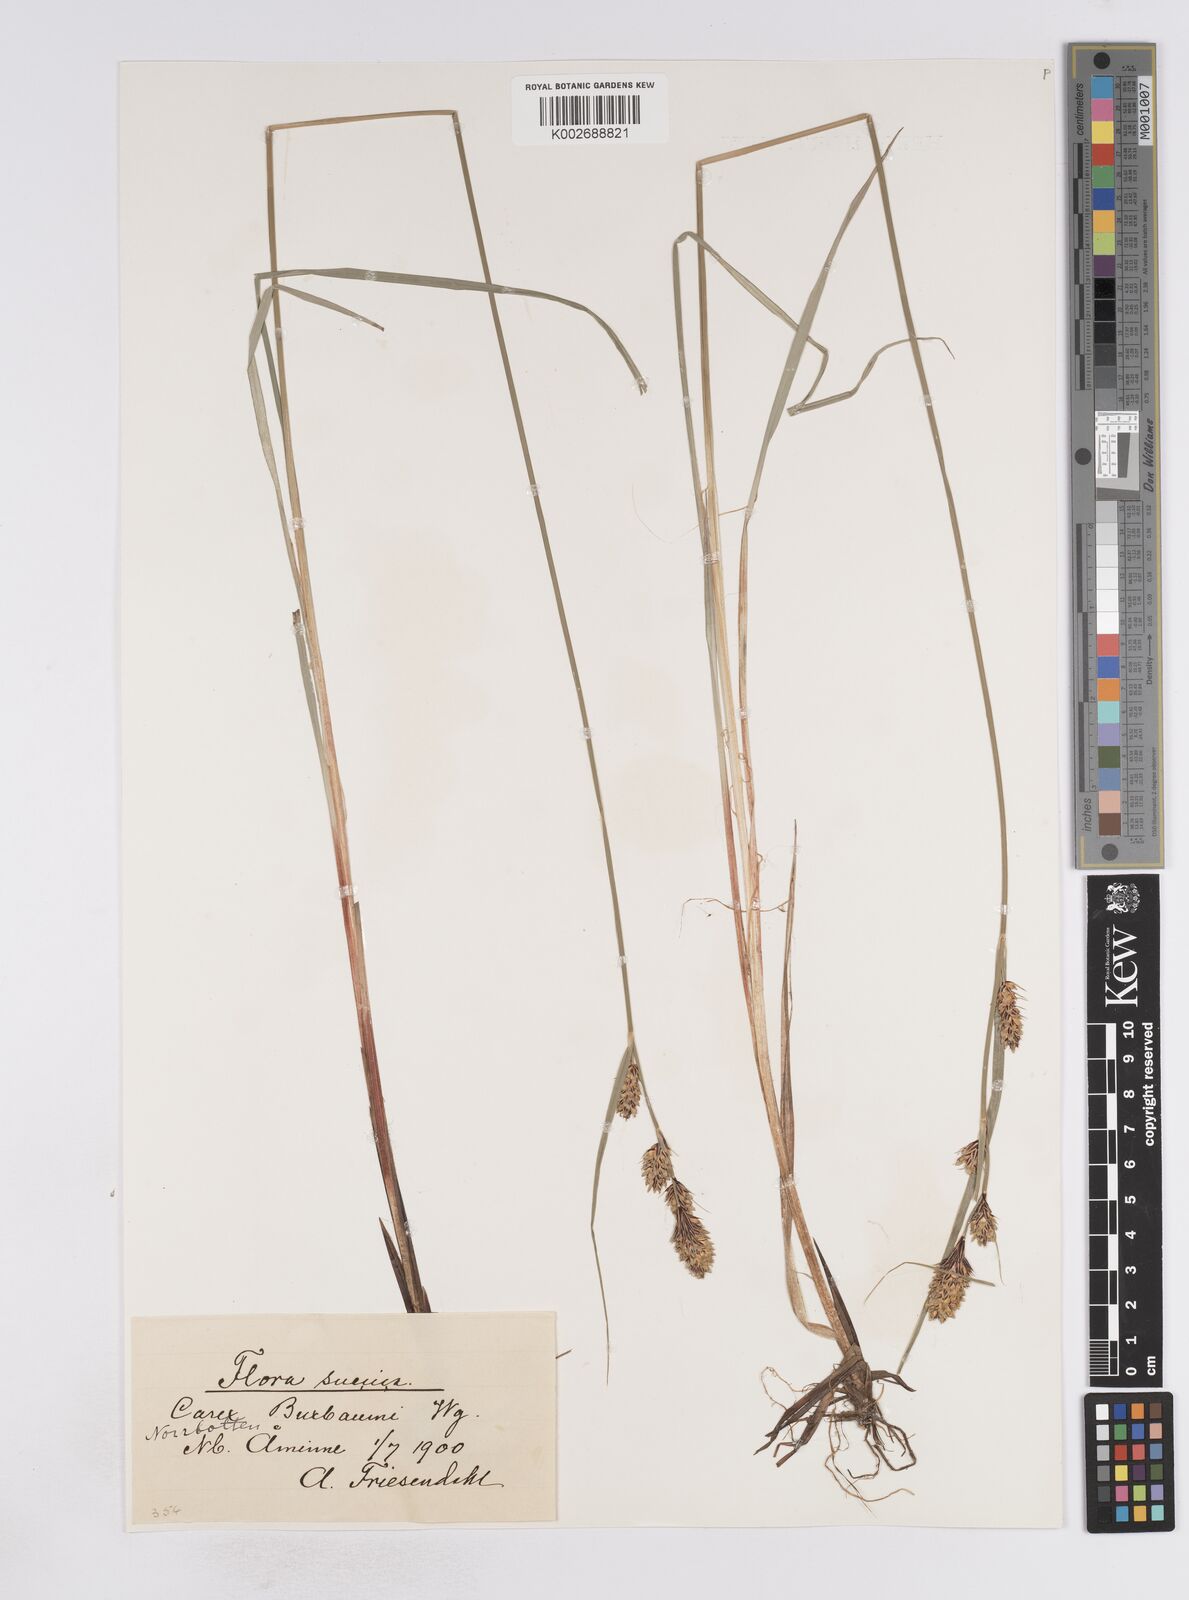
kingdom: Plantae
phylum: Tracheophyta
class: Liliopsida
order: Poales
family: Cyperaceae
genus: Carex
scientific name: Carex buxbaumii
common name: Club sedge
